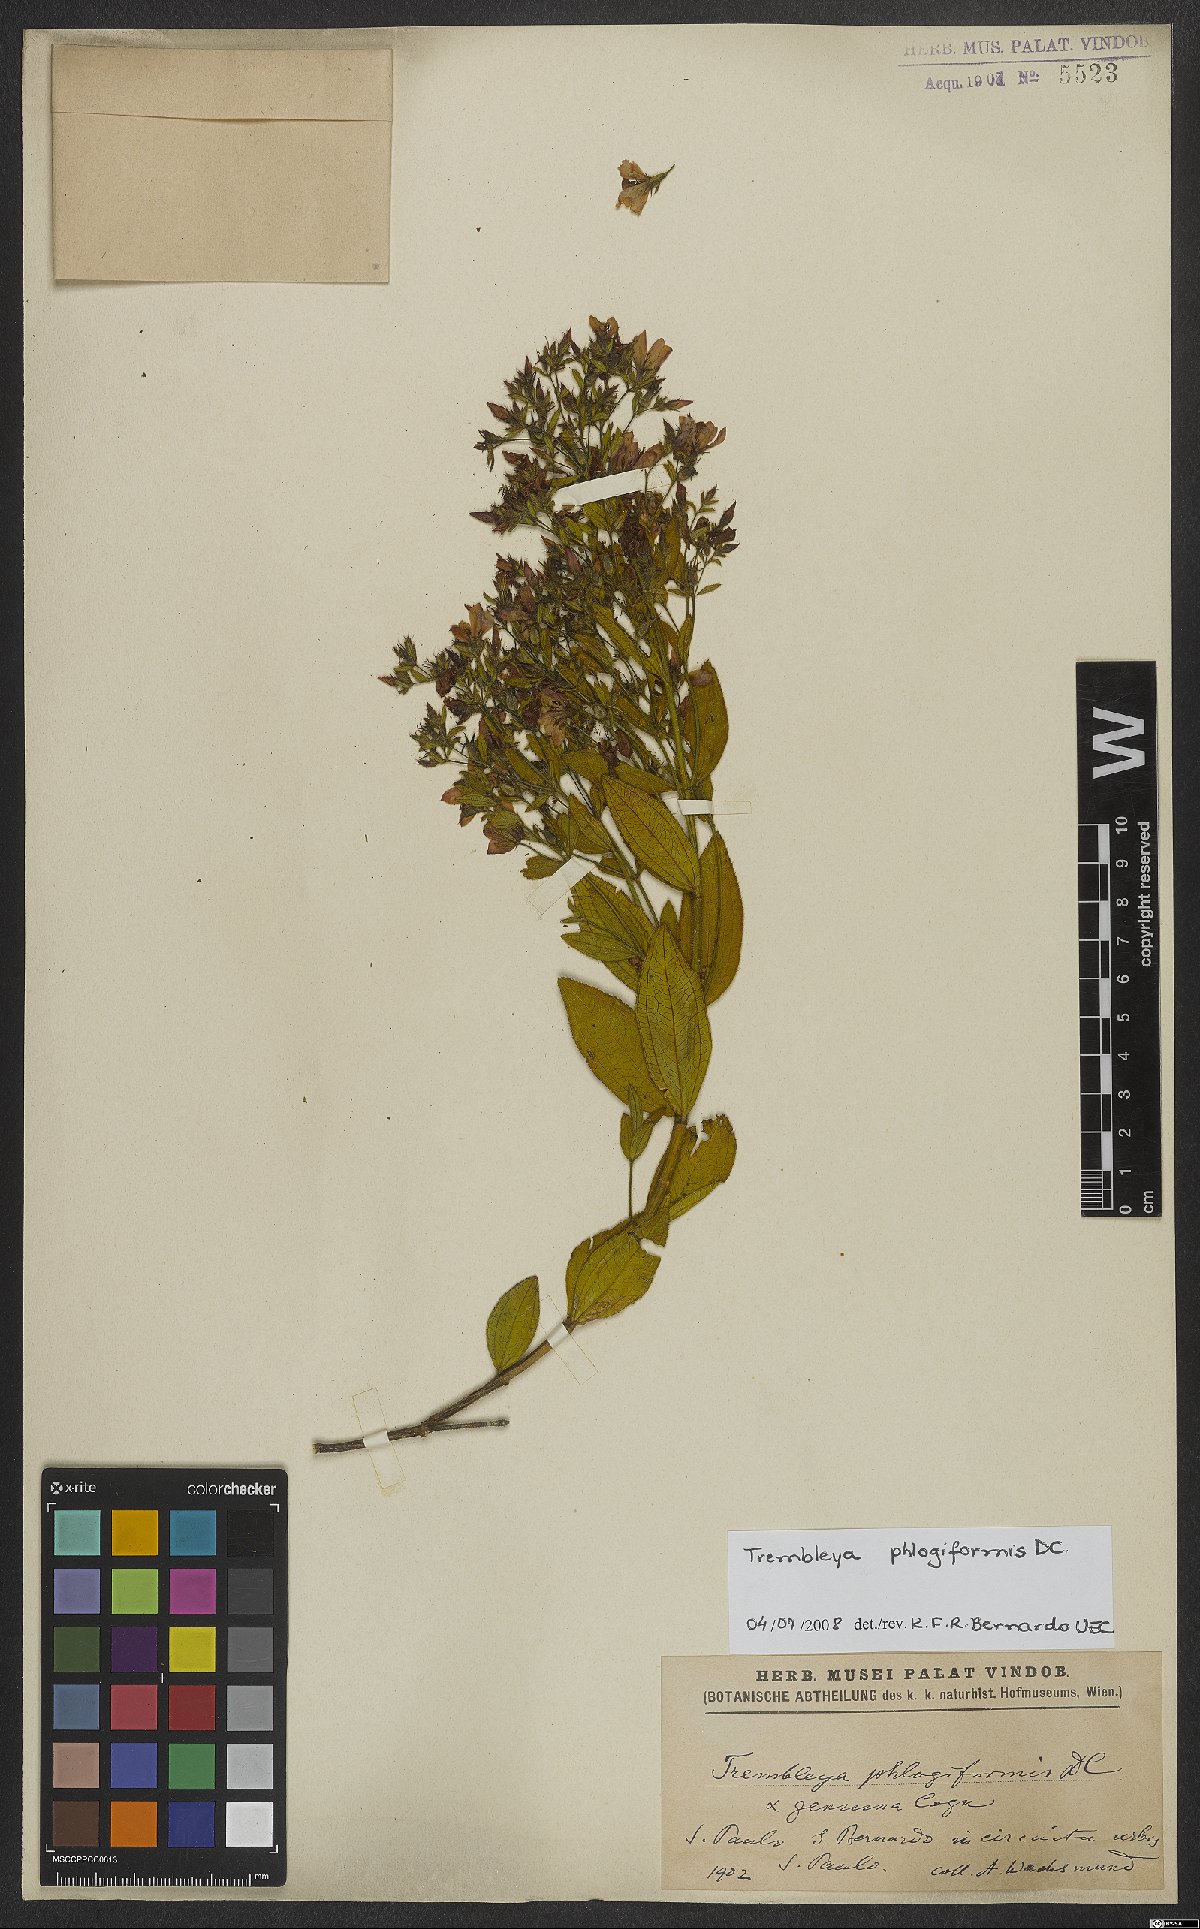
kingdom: Plantae
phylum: Tracheophyta
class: Magnoliopsida
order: Myrtales
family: Melastomataceae
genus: Microlicia
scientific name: Microlicia phlogiformis
